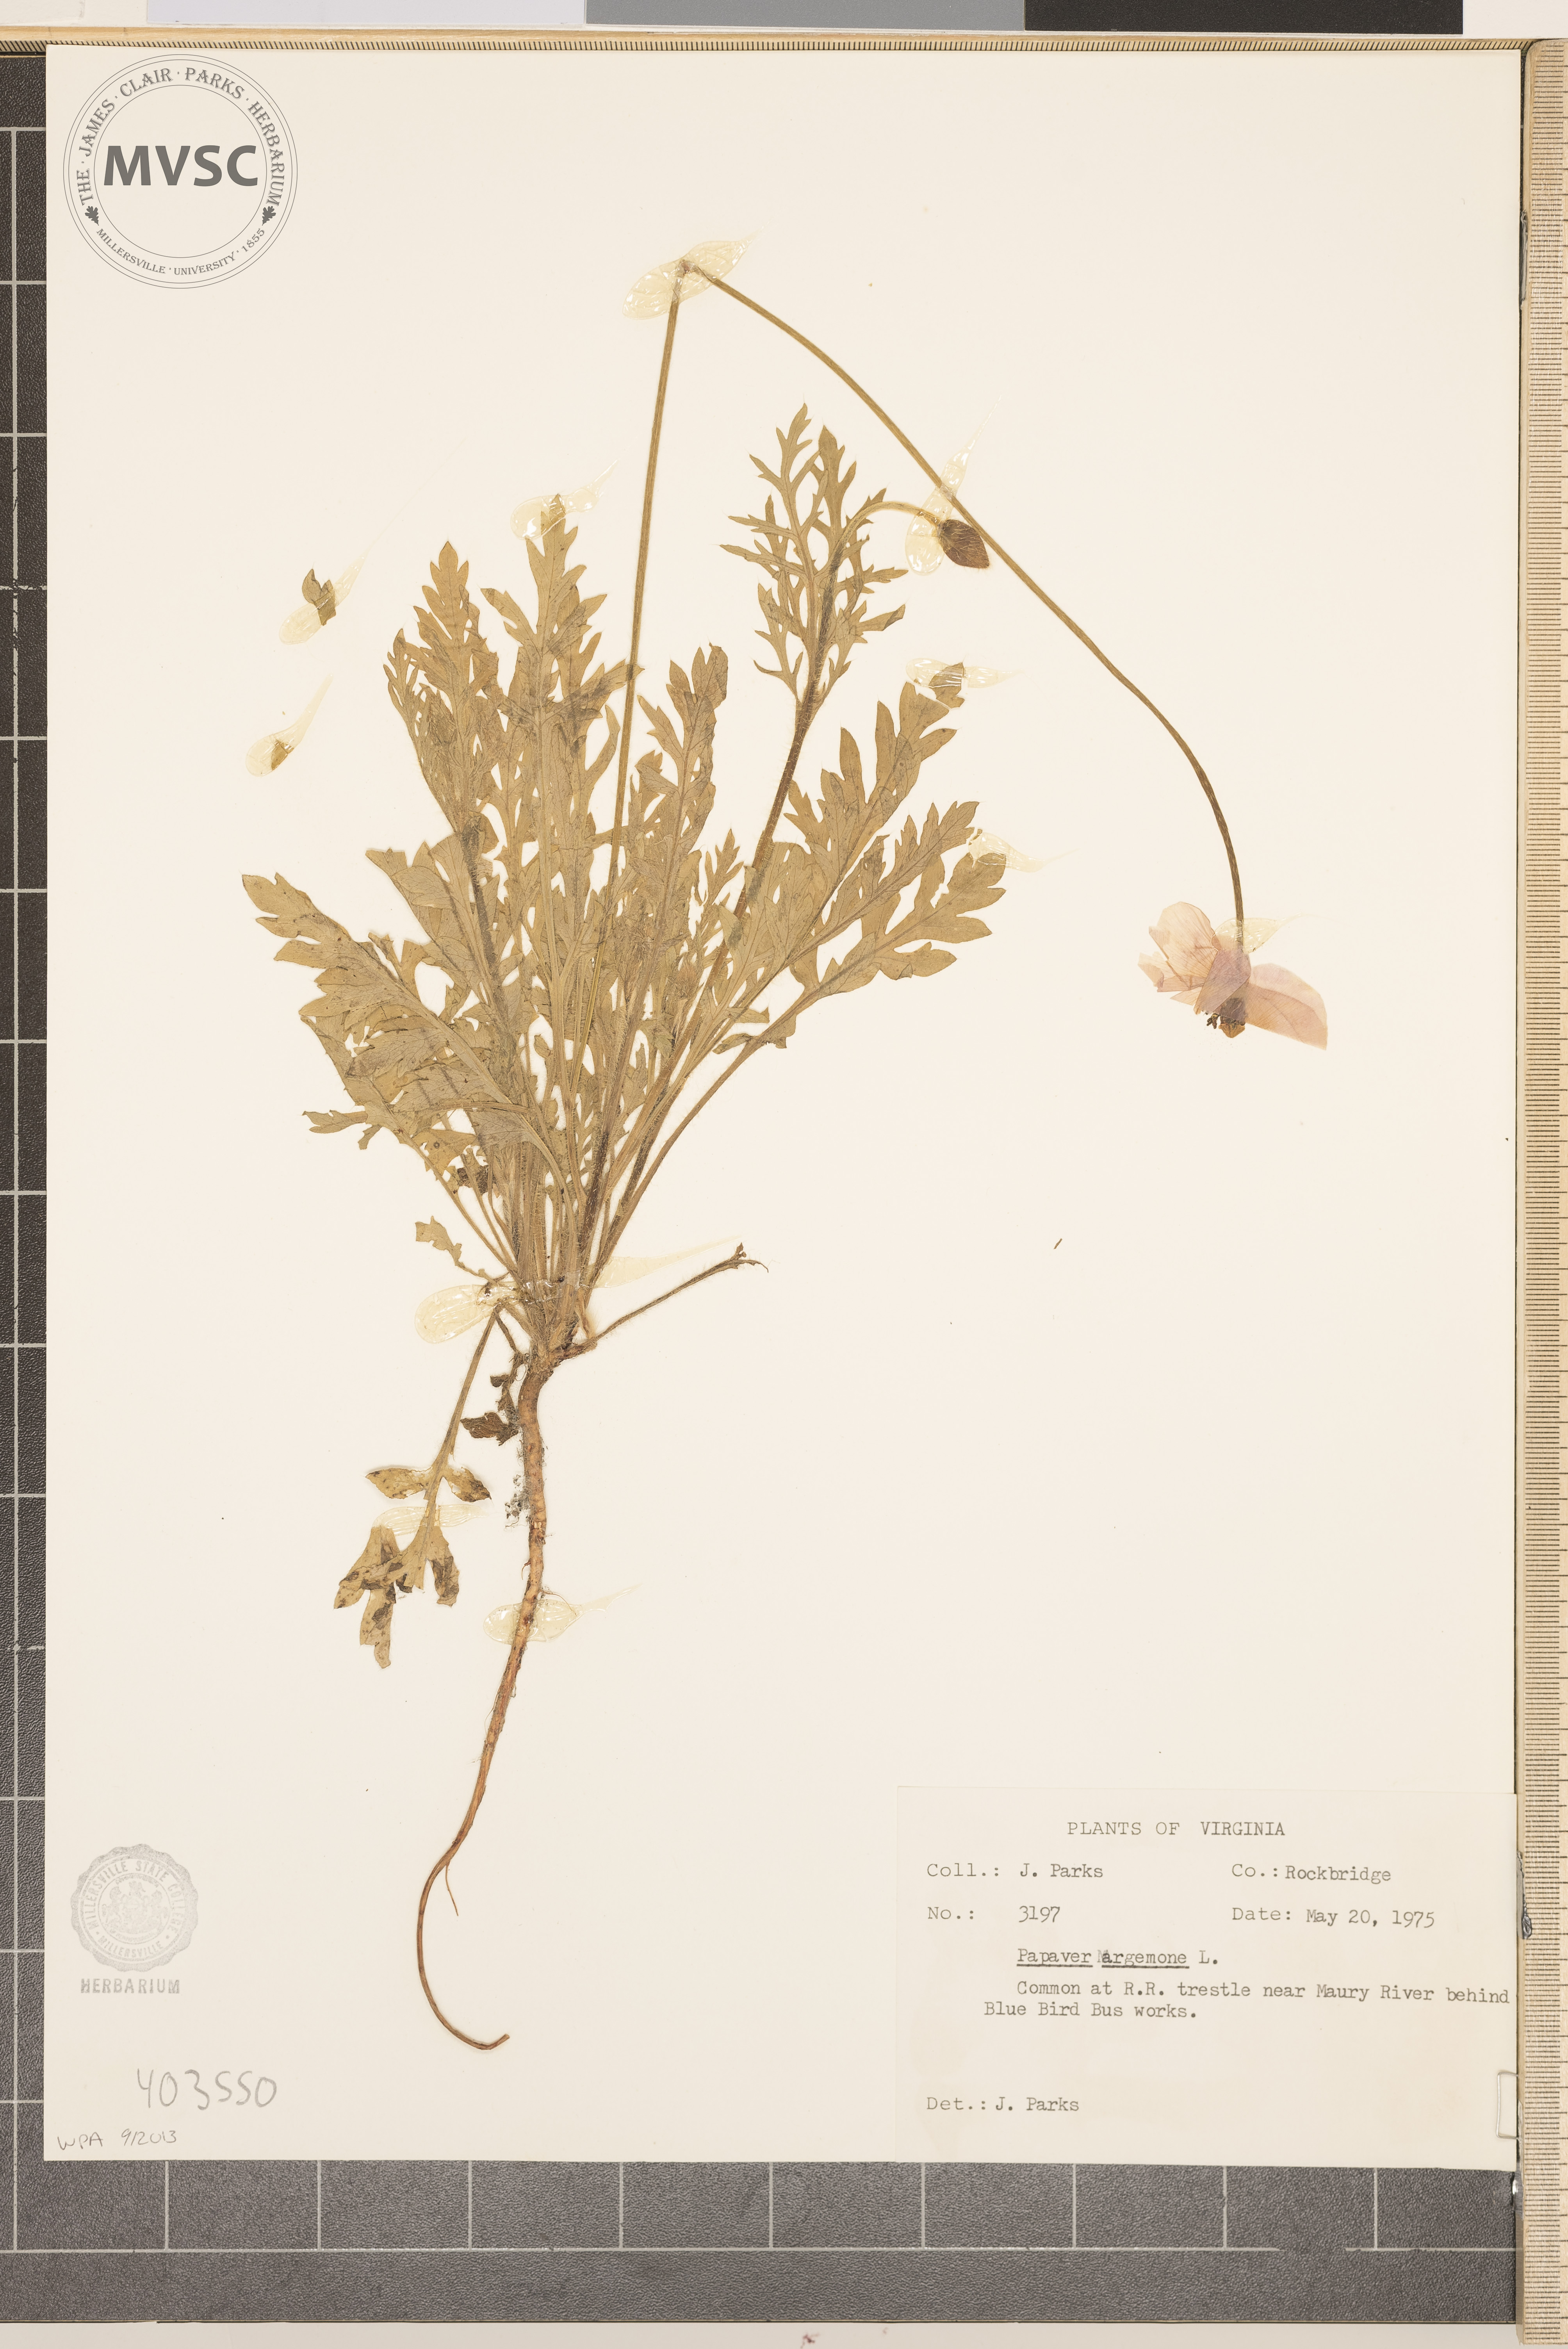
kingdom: Plantae
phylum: Tracheophyta
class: Magnoliopsida
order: Ranunculales
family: Papaveraceae
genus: Papaver
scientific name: Papaver dubium
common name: Long-headed poppy
